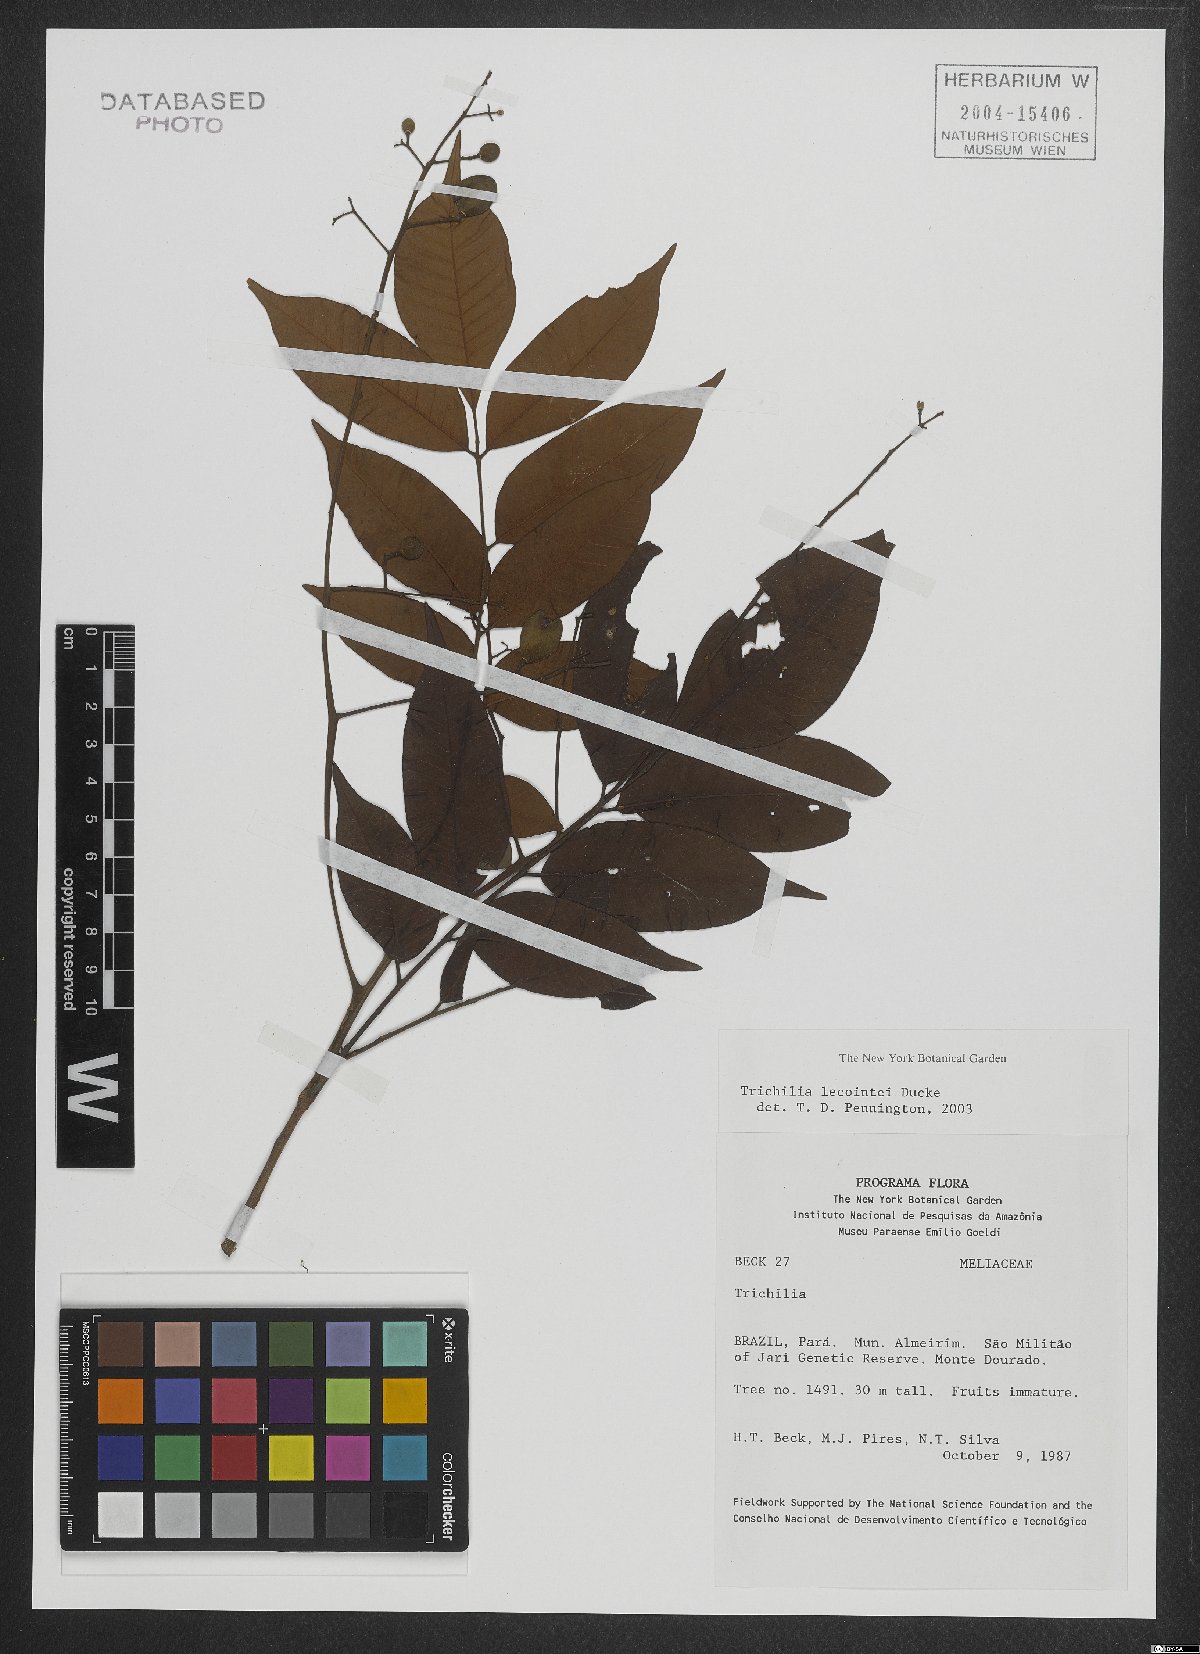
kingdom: Plantae
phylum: Tracheophyta
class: Magnoliopsida
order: Sapindales
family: Meliaceae
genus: Trichilia
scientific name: Trichilia lecointei
